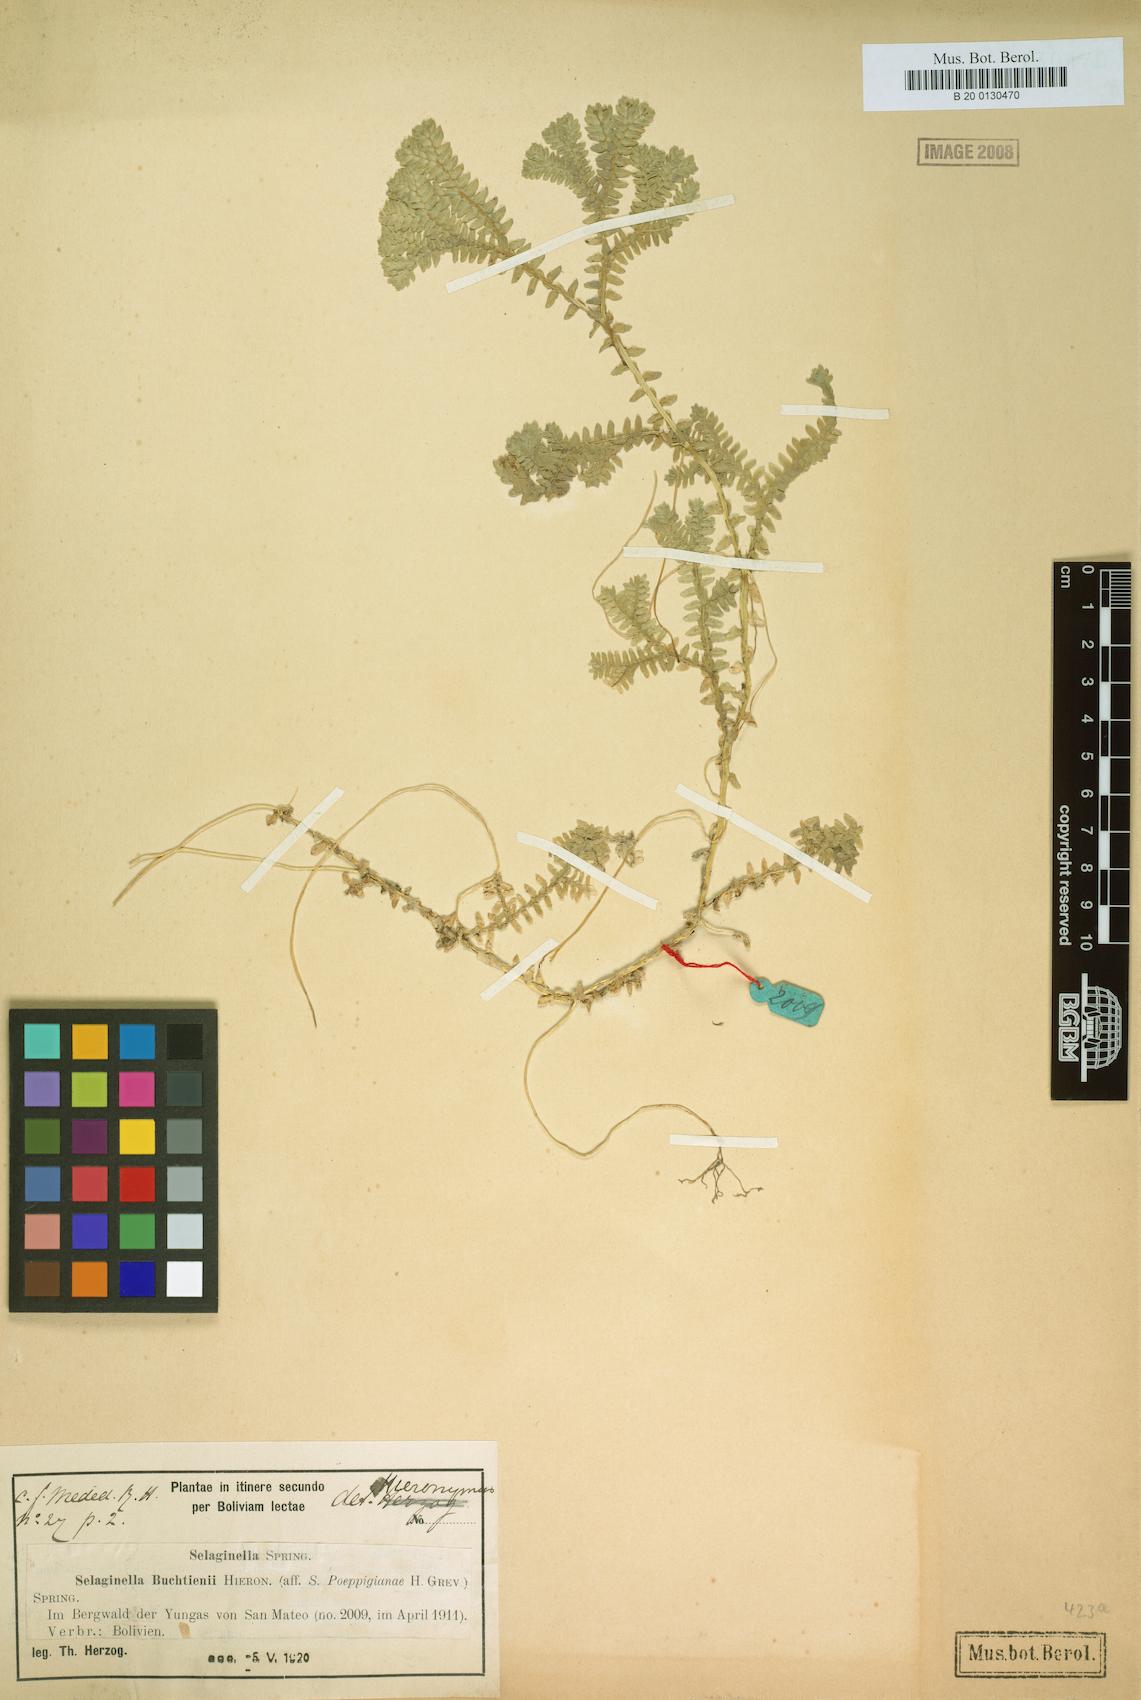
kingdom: Plantae
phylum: Tracheophyta
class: Lycopodiopsida
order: Selaginellales
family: Selaginellaceae
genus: Selaginella
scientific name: Selaginella trisulcata
